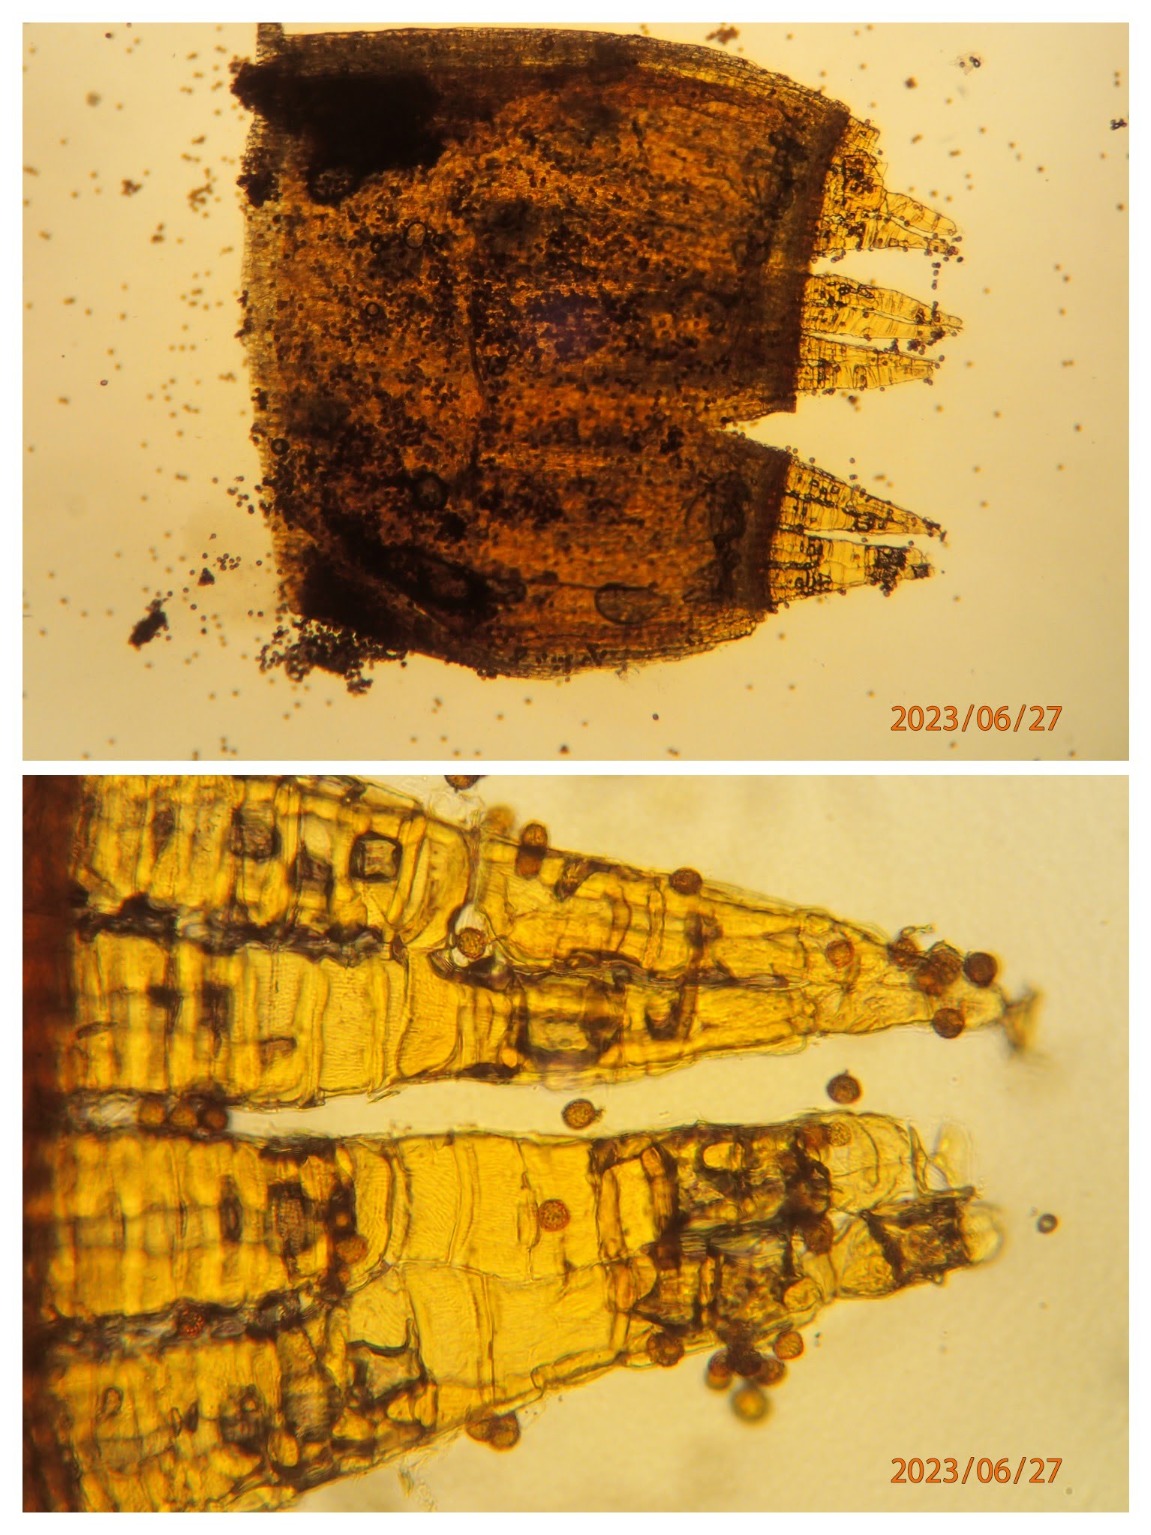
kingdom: Plantae
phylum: Bryophyta
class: Bryopsida
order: Orthotrichales
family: Orthotrichaceae
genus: Orthotrichum
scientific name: Orthotrichum cupulatum
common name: Skål-furehætte
